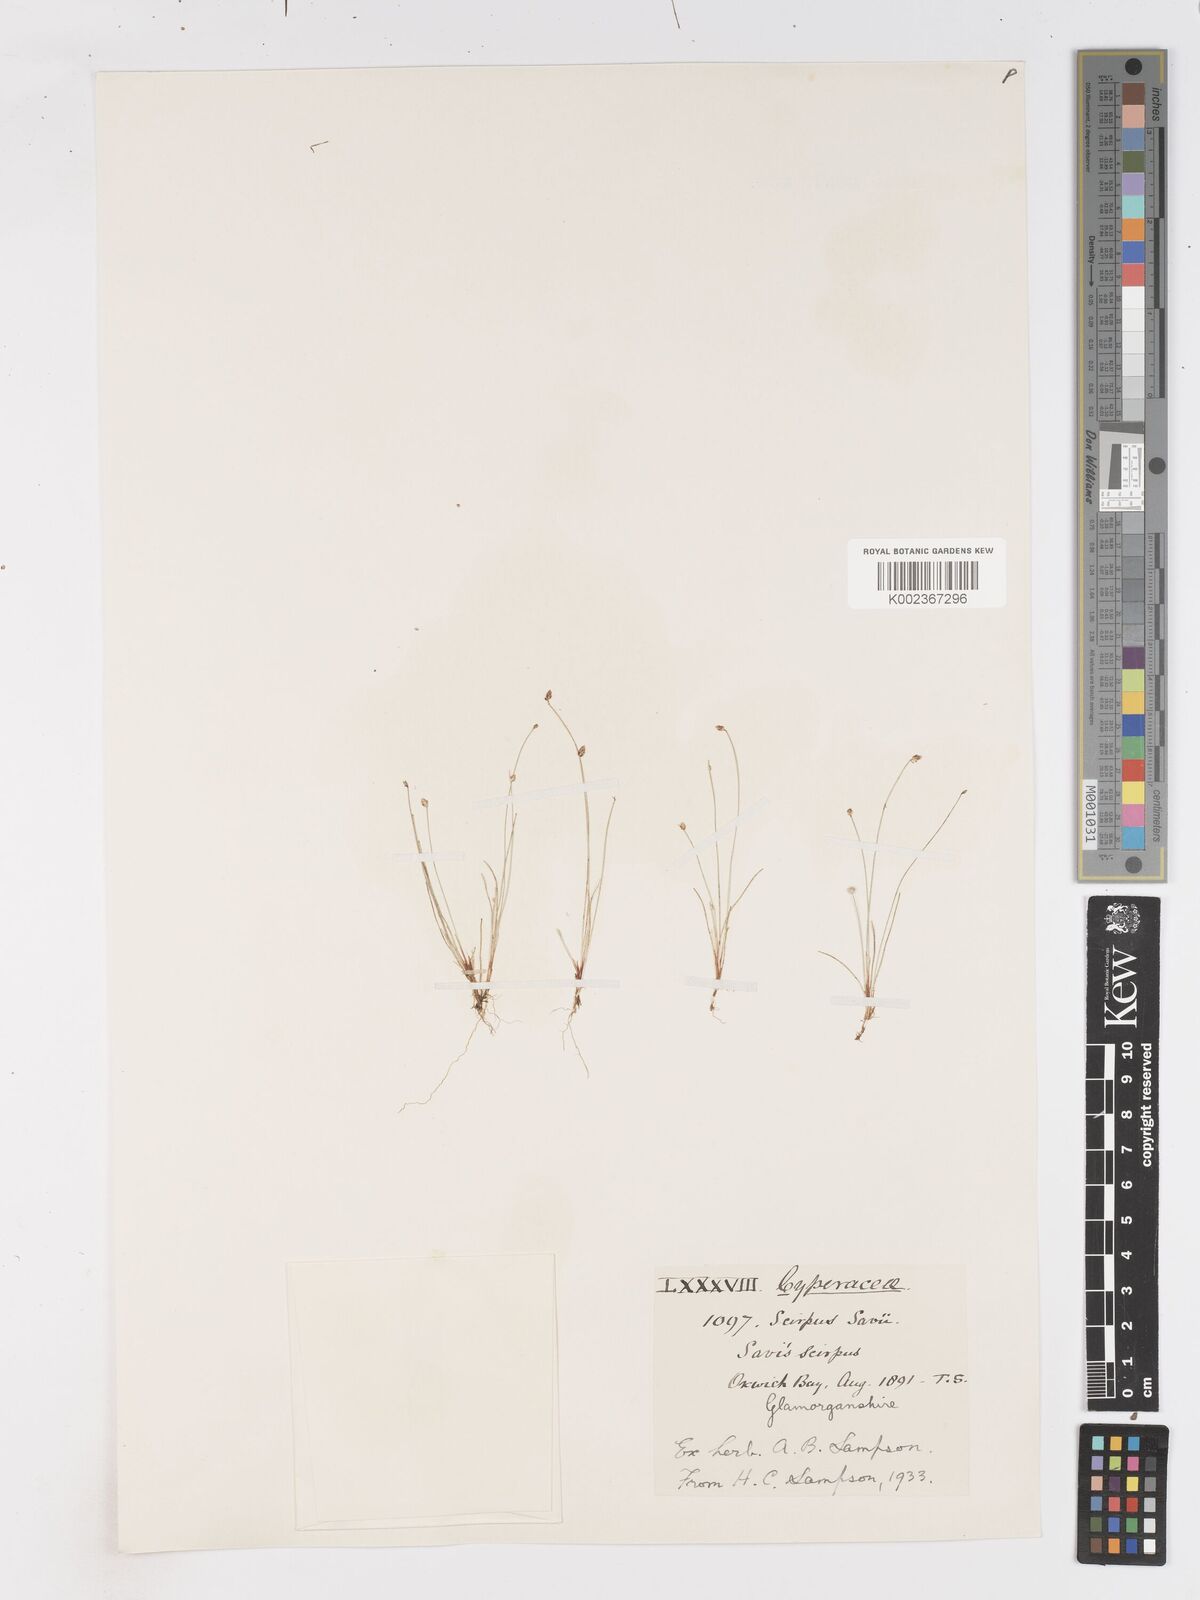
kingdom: Plantae
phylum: Tracheophyta
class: Liliopsida
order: Poales
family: Cyperaceae
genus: Isolepis
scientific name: Isolepis cernua
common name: Slender club-rush
